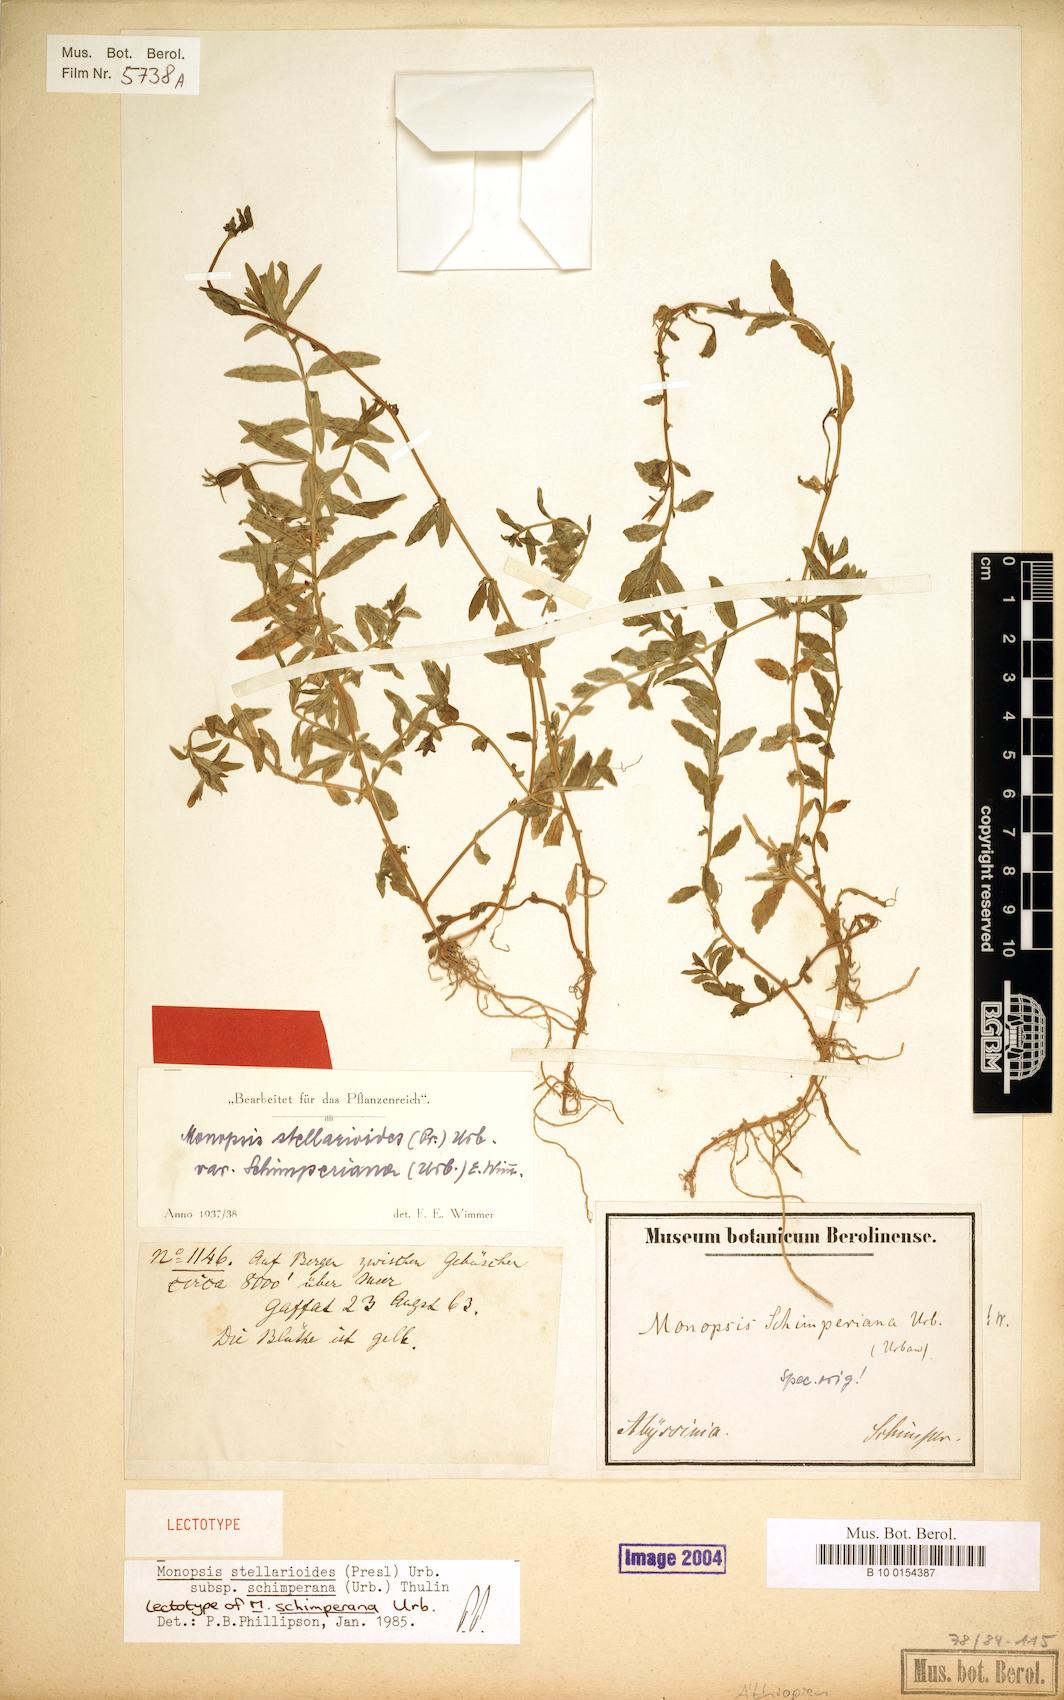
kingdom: Plantae
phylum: Tracheophyta
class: Magnoliopsida
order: Asterales
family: Campanulaceae
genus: Monopsis
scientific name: Monopsis stellarioides
